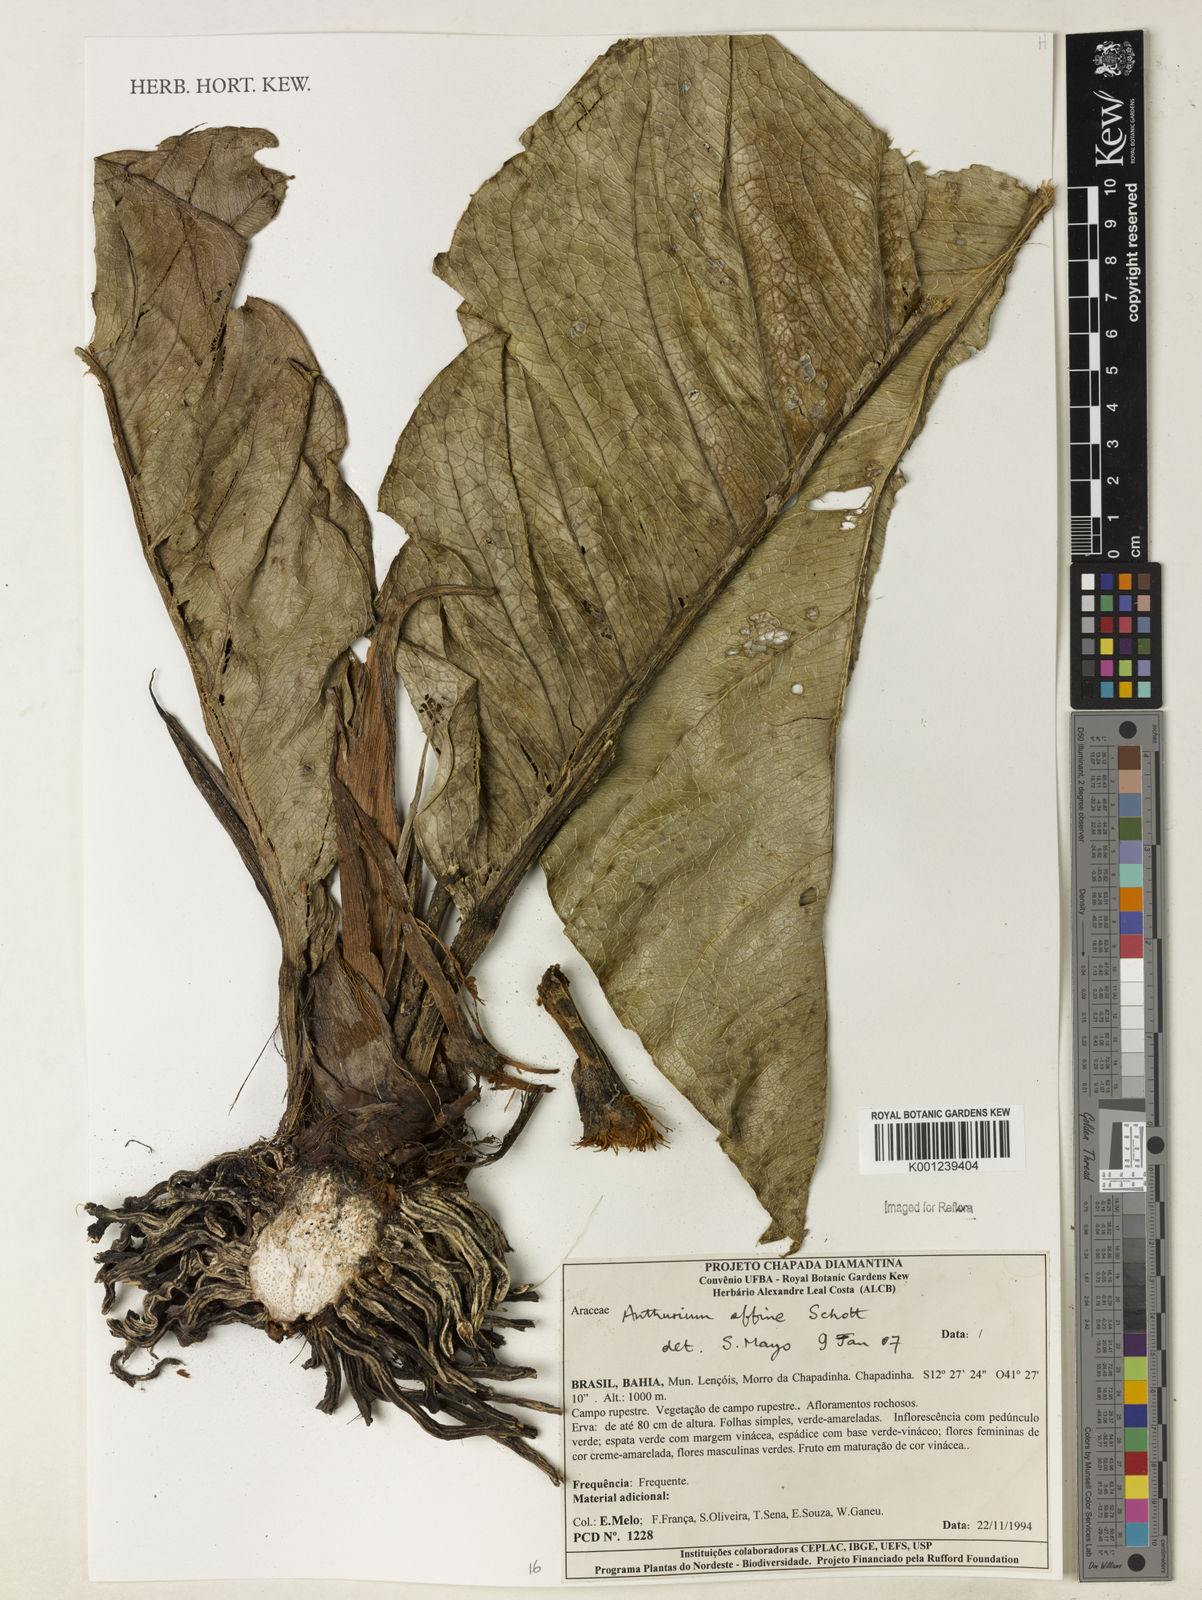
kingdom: Plantae
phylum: Tracheophyta
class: Liliopsida
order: Alismatales
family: Araceae
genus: Anthurium
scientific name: Anthurium affine
